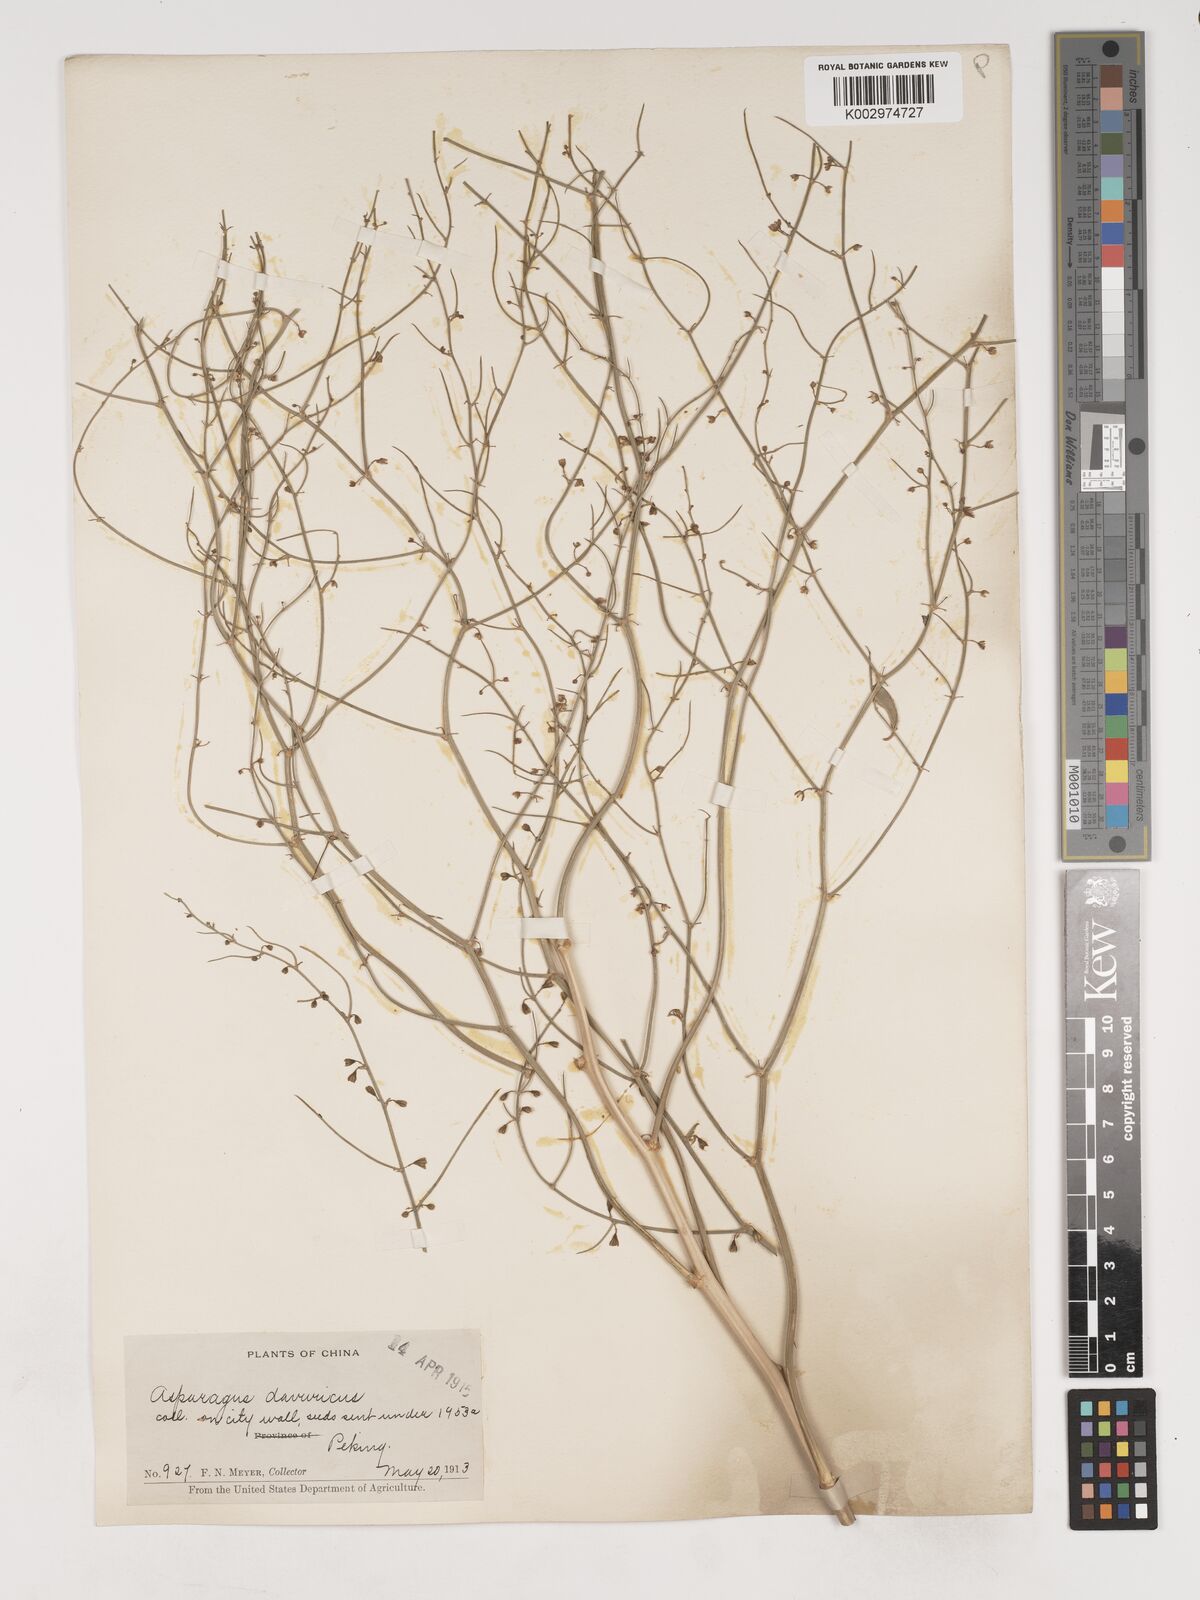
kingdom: Plantae
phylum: Tracheophyta
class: Liliopsida
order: Asparagales
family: Asparagaceae
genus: Asparagus
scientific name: Asparagus dauricus
